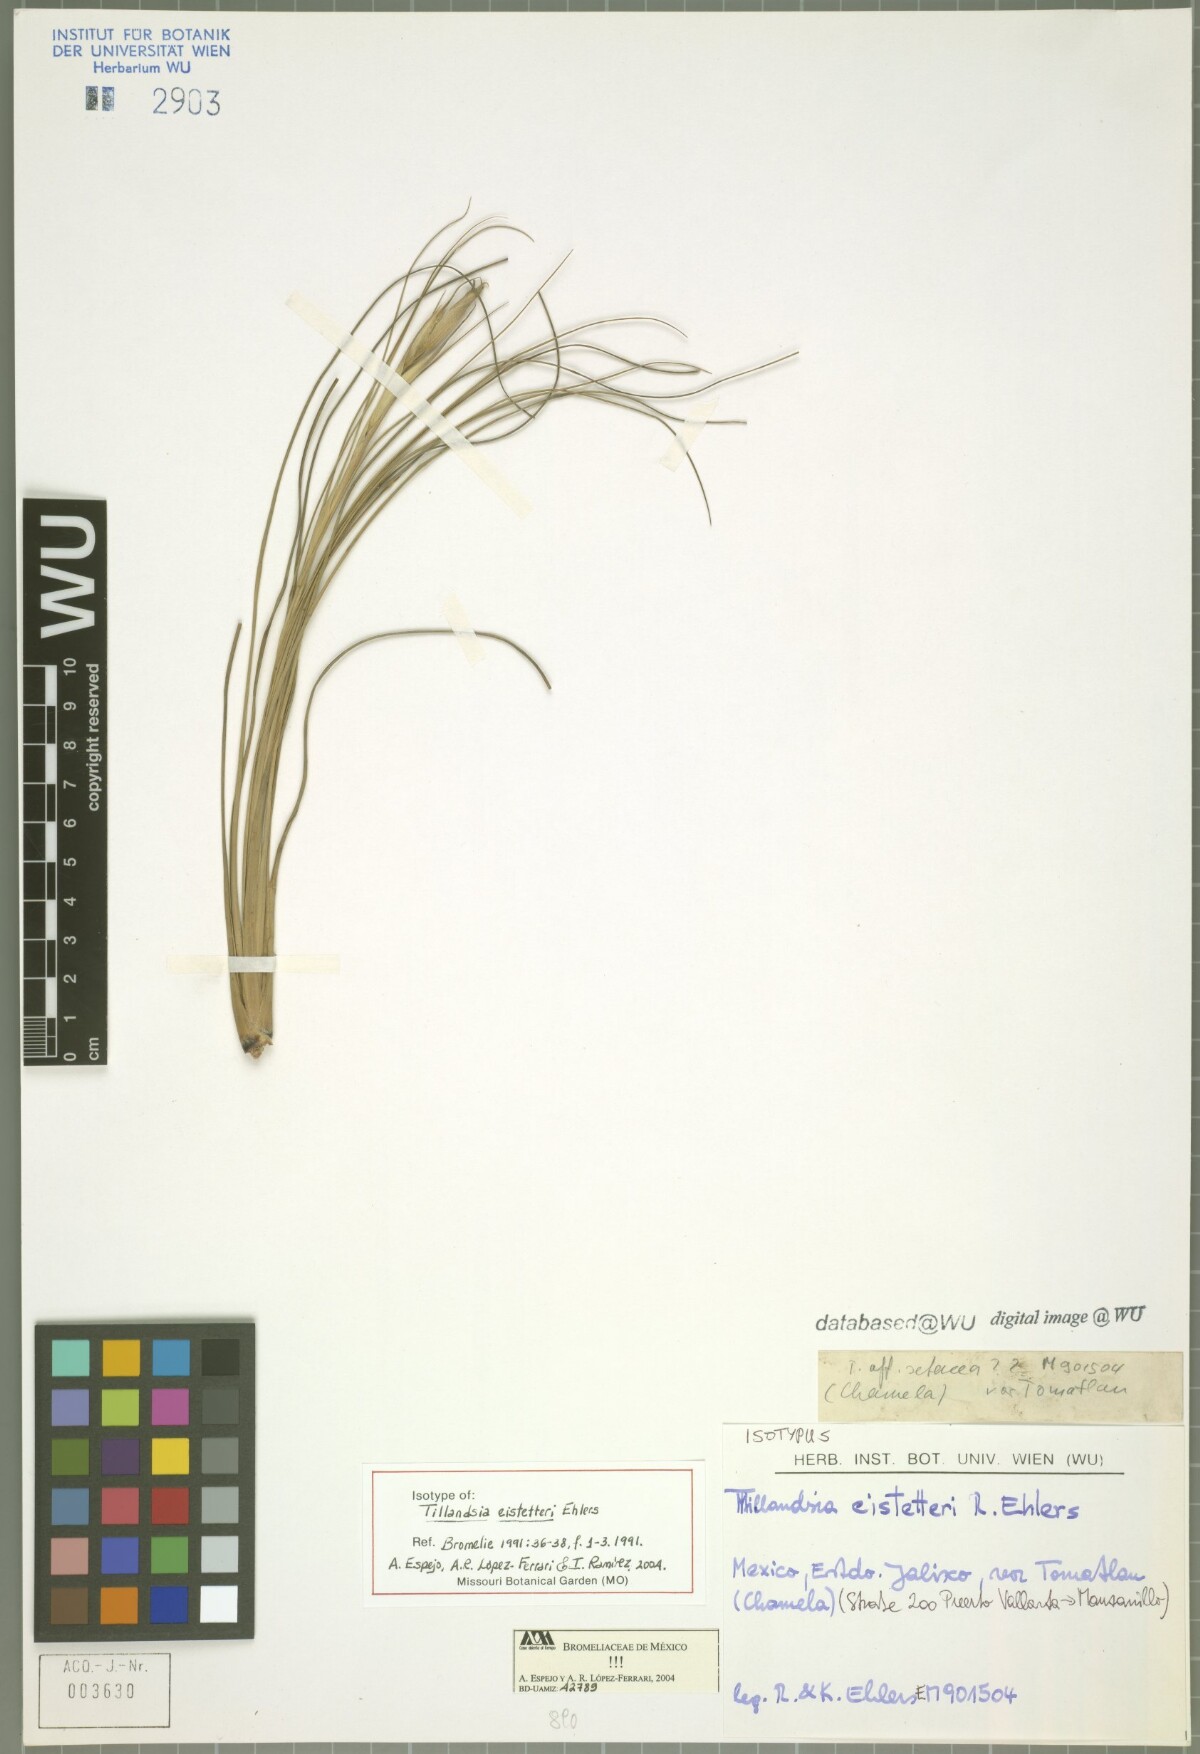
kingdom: Plantae
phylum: Tracheophyta
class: Liliopsida
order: Poales
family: Bromeliaceae
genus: Tillandsia
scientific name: Tillandsia eistetteri
